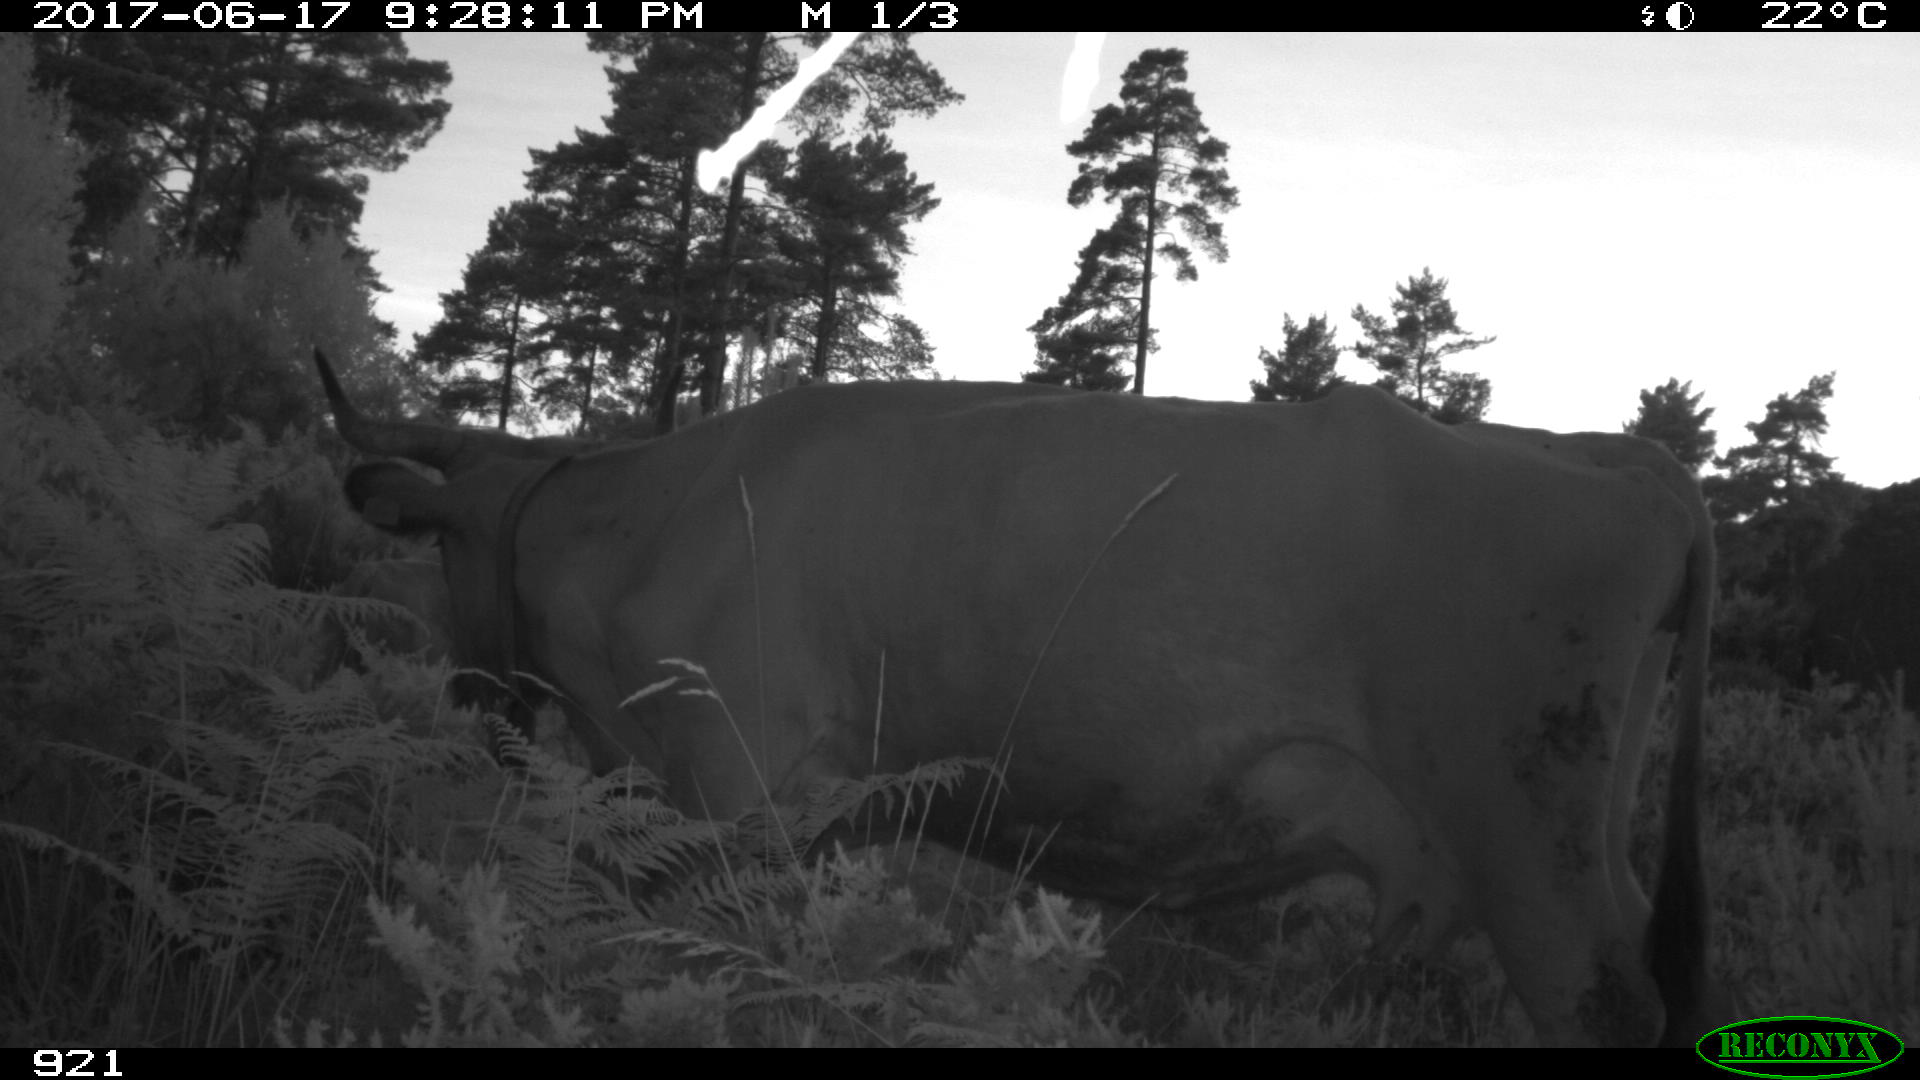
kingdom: Animalia
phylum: Chordata
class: Mammalia
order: Artiodactyla
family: Bovidae
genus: Bos
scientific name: Bos taurus
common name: Domesticated cattle
